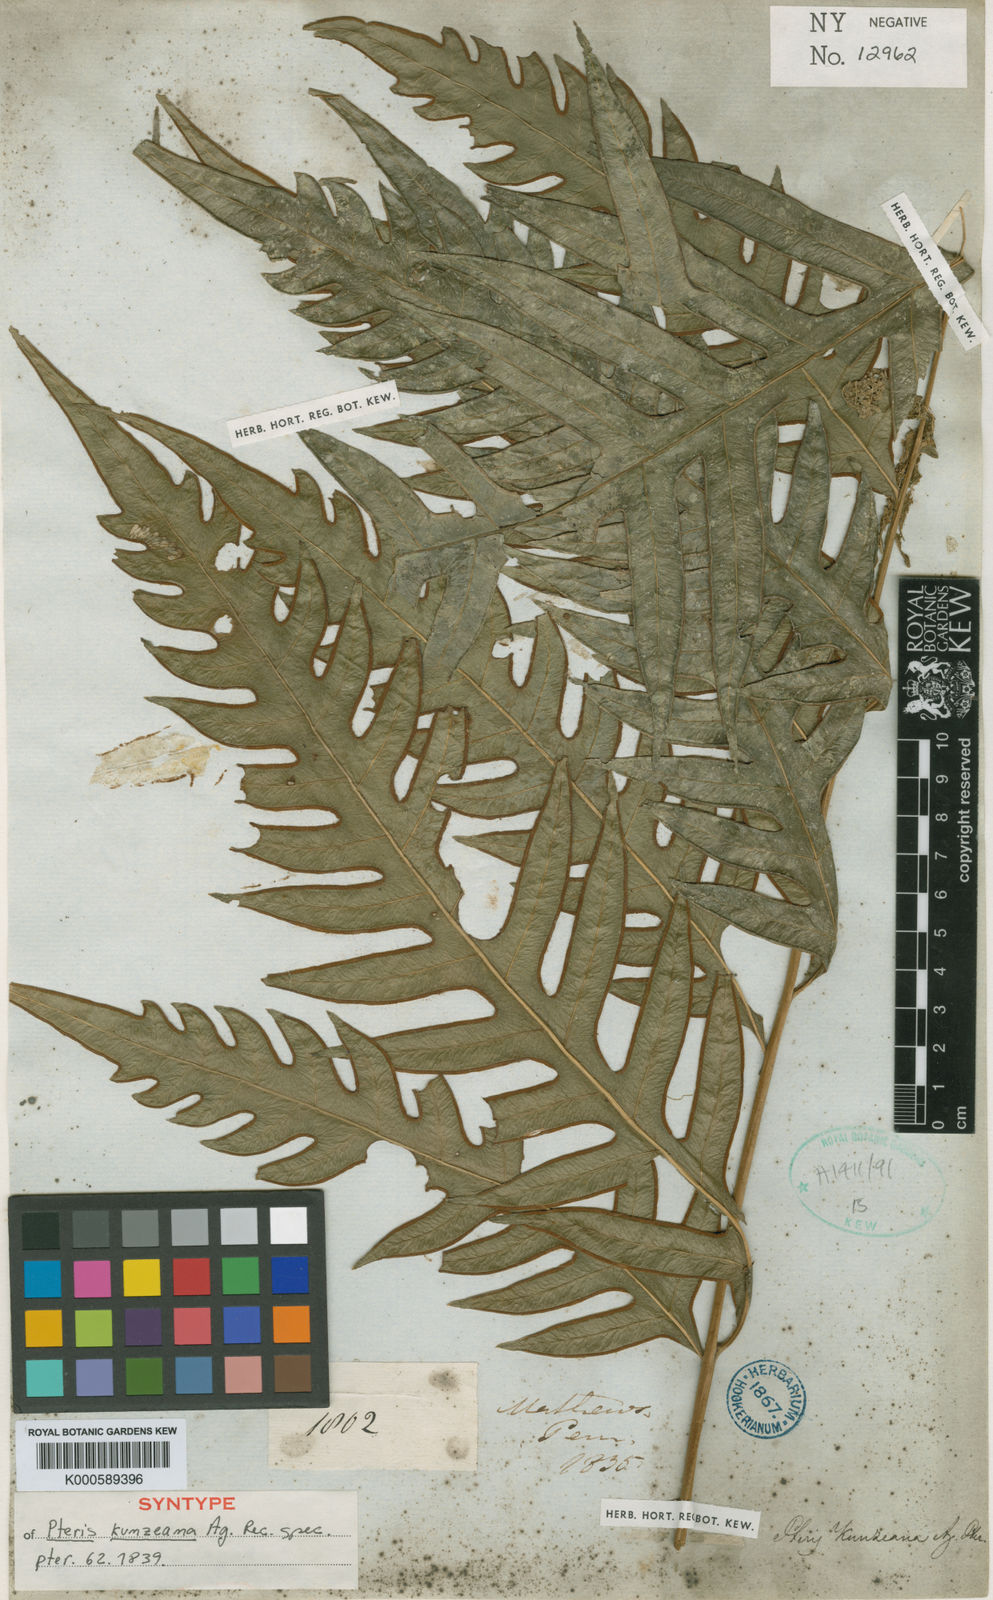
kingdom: Plantae
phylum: Tracheophyta
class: Polypodiopsida
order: Polypodiales
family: Pteridaceae
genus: Pteris
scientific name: Pteris podophylla
